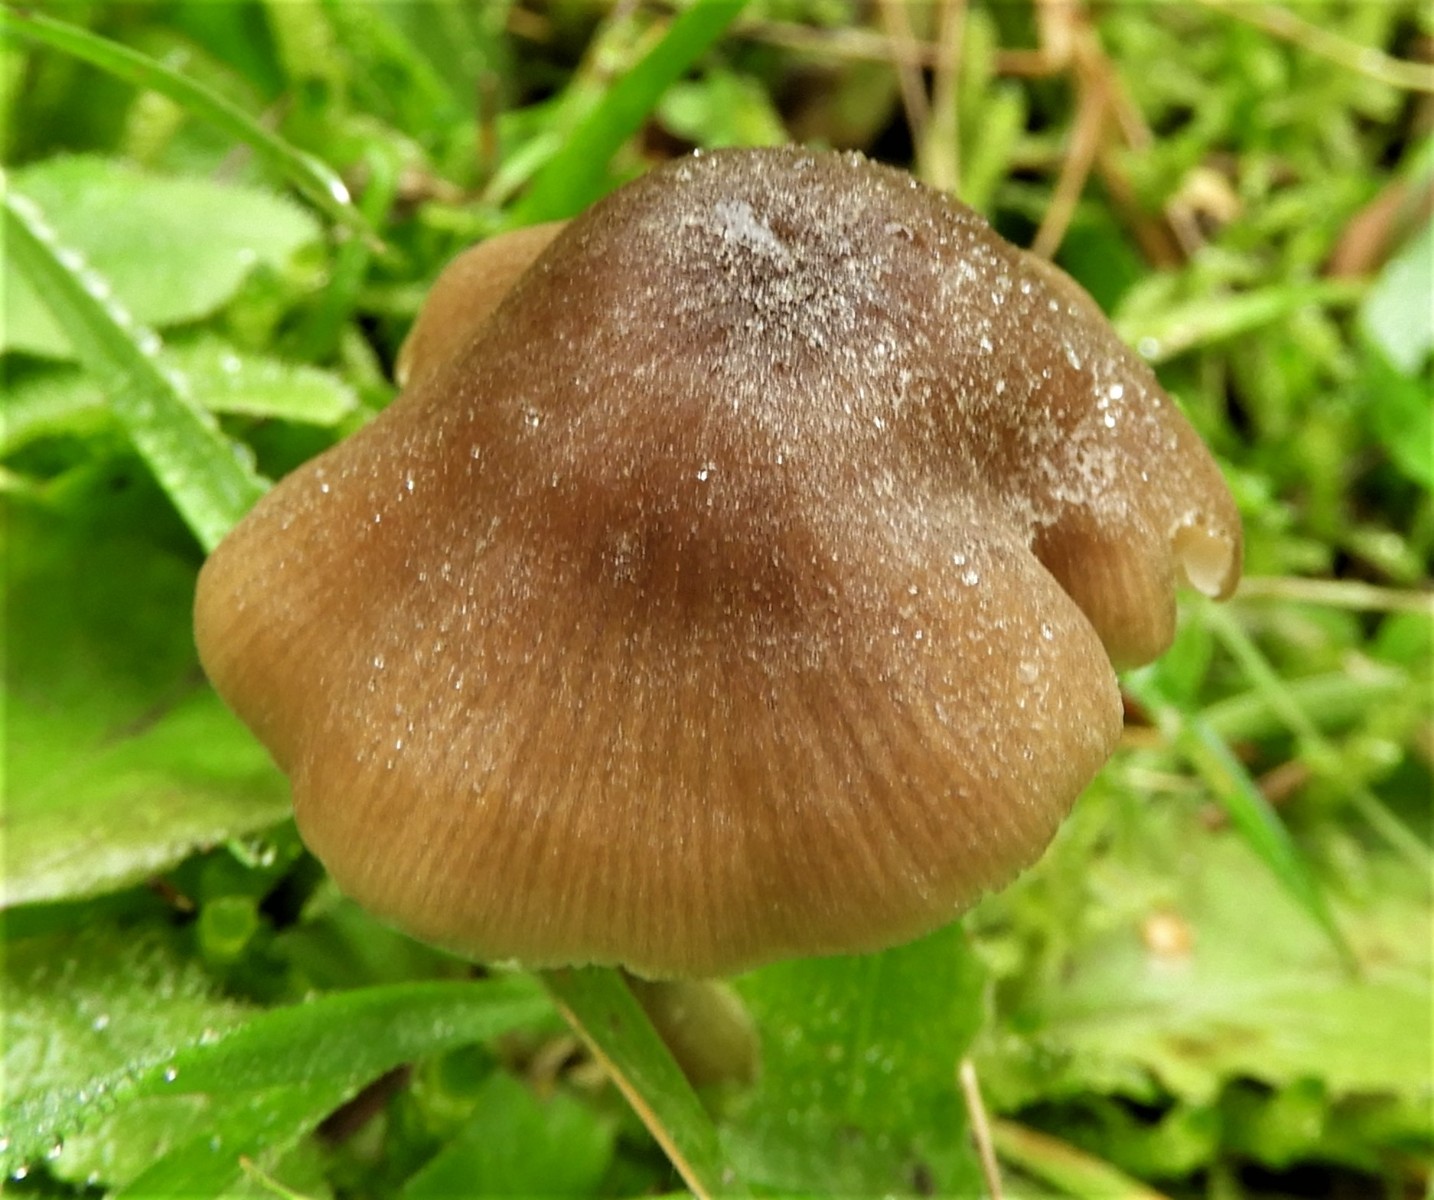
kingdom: Fungi
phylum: Basidiomycota
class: Agaricomycetes
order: Agaricales
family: Entolomataceae
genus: Entoloma
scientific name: Entoloma conferendum
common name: stjernesporet rødblad
